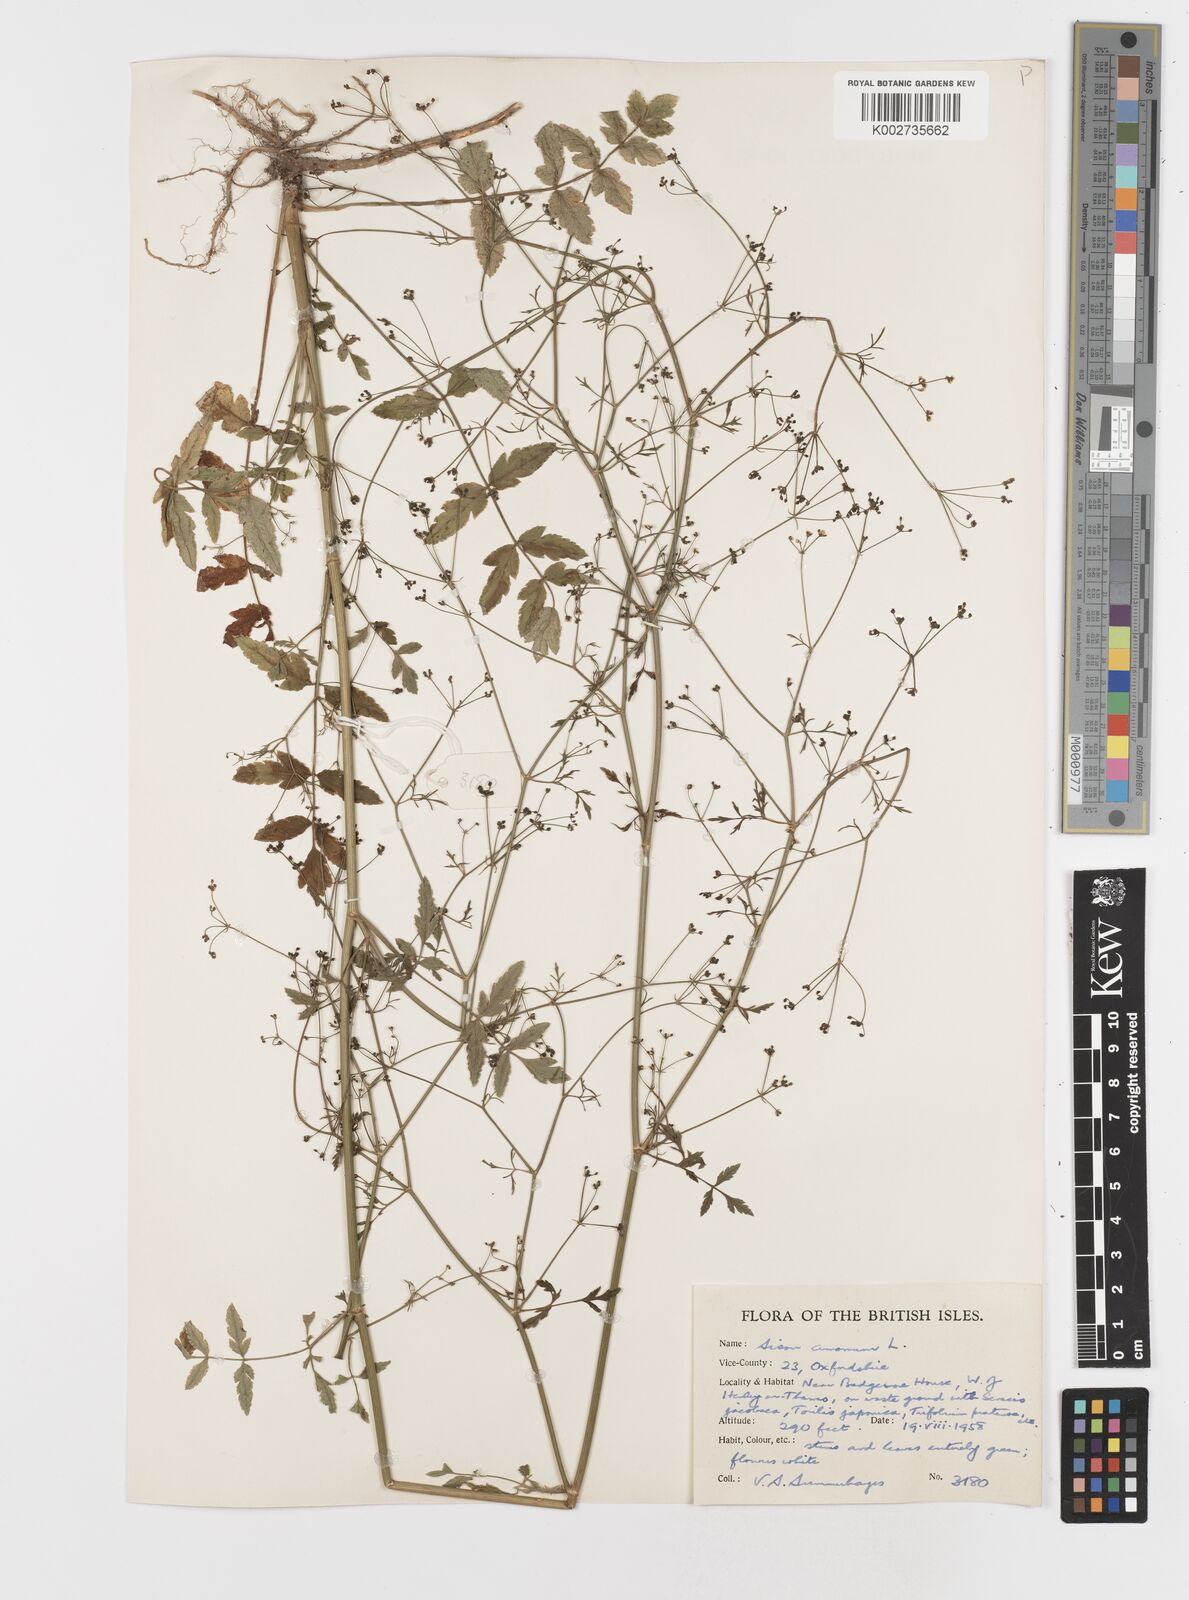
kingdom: Plantae
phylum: Tracheophyta
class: Magnoliopsida
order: Apiales
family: Apiaceae
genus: Sison
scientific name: Sison amomum
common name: Stone-parsley
